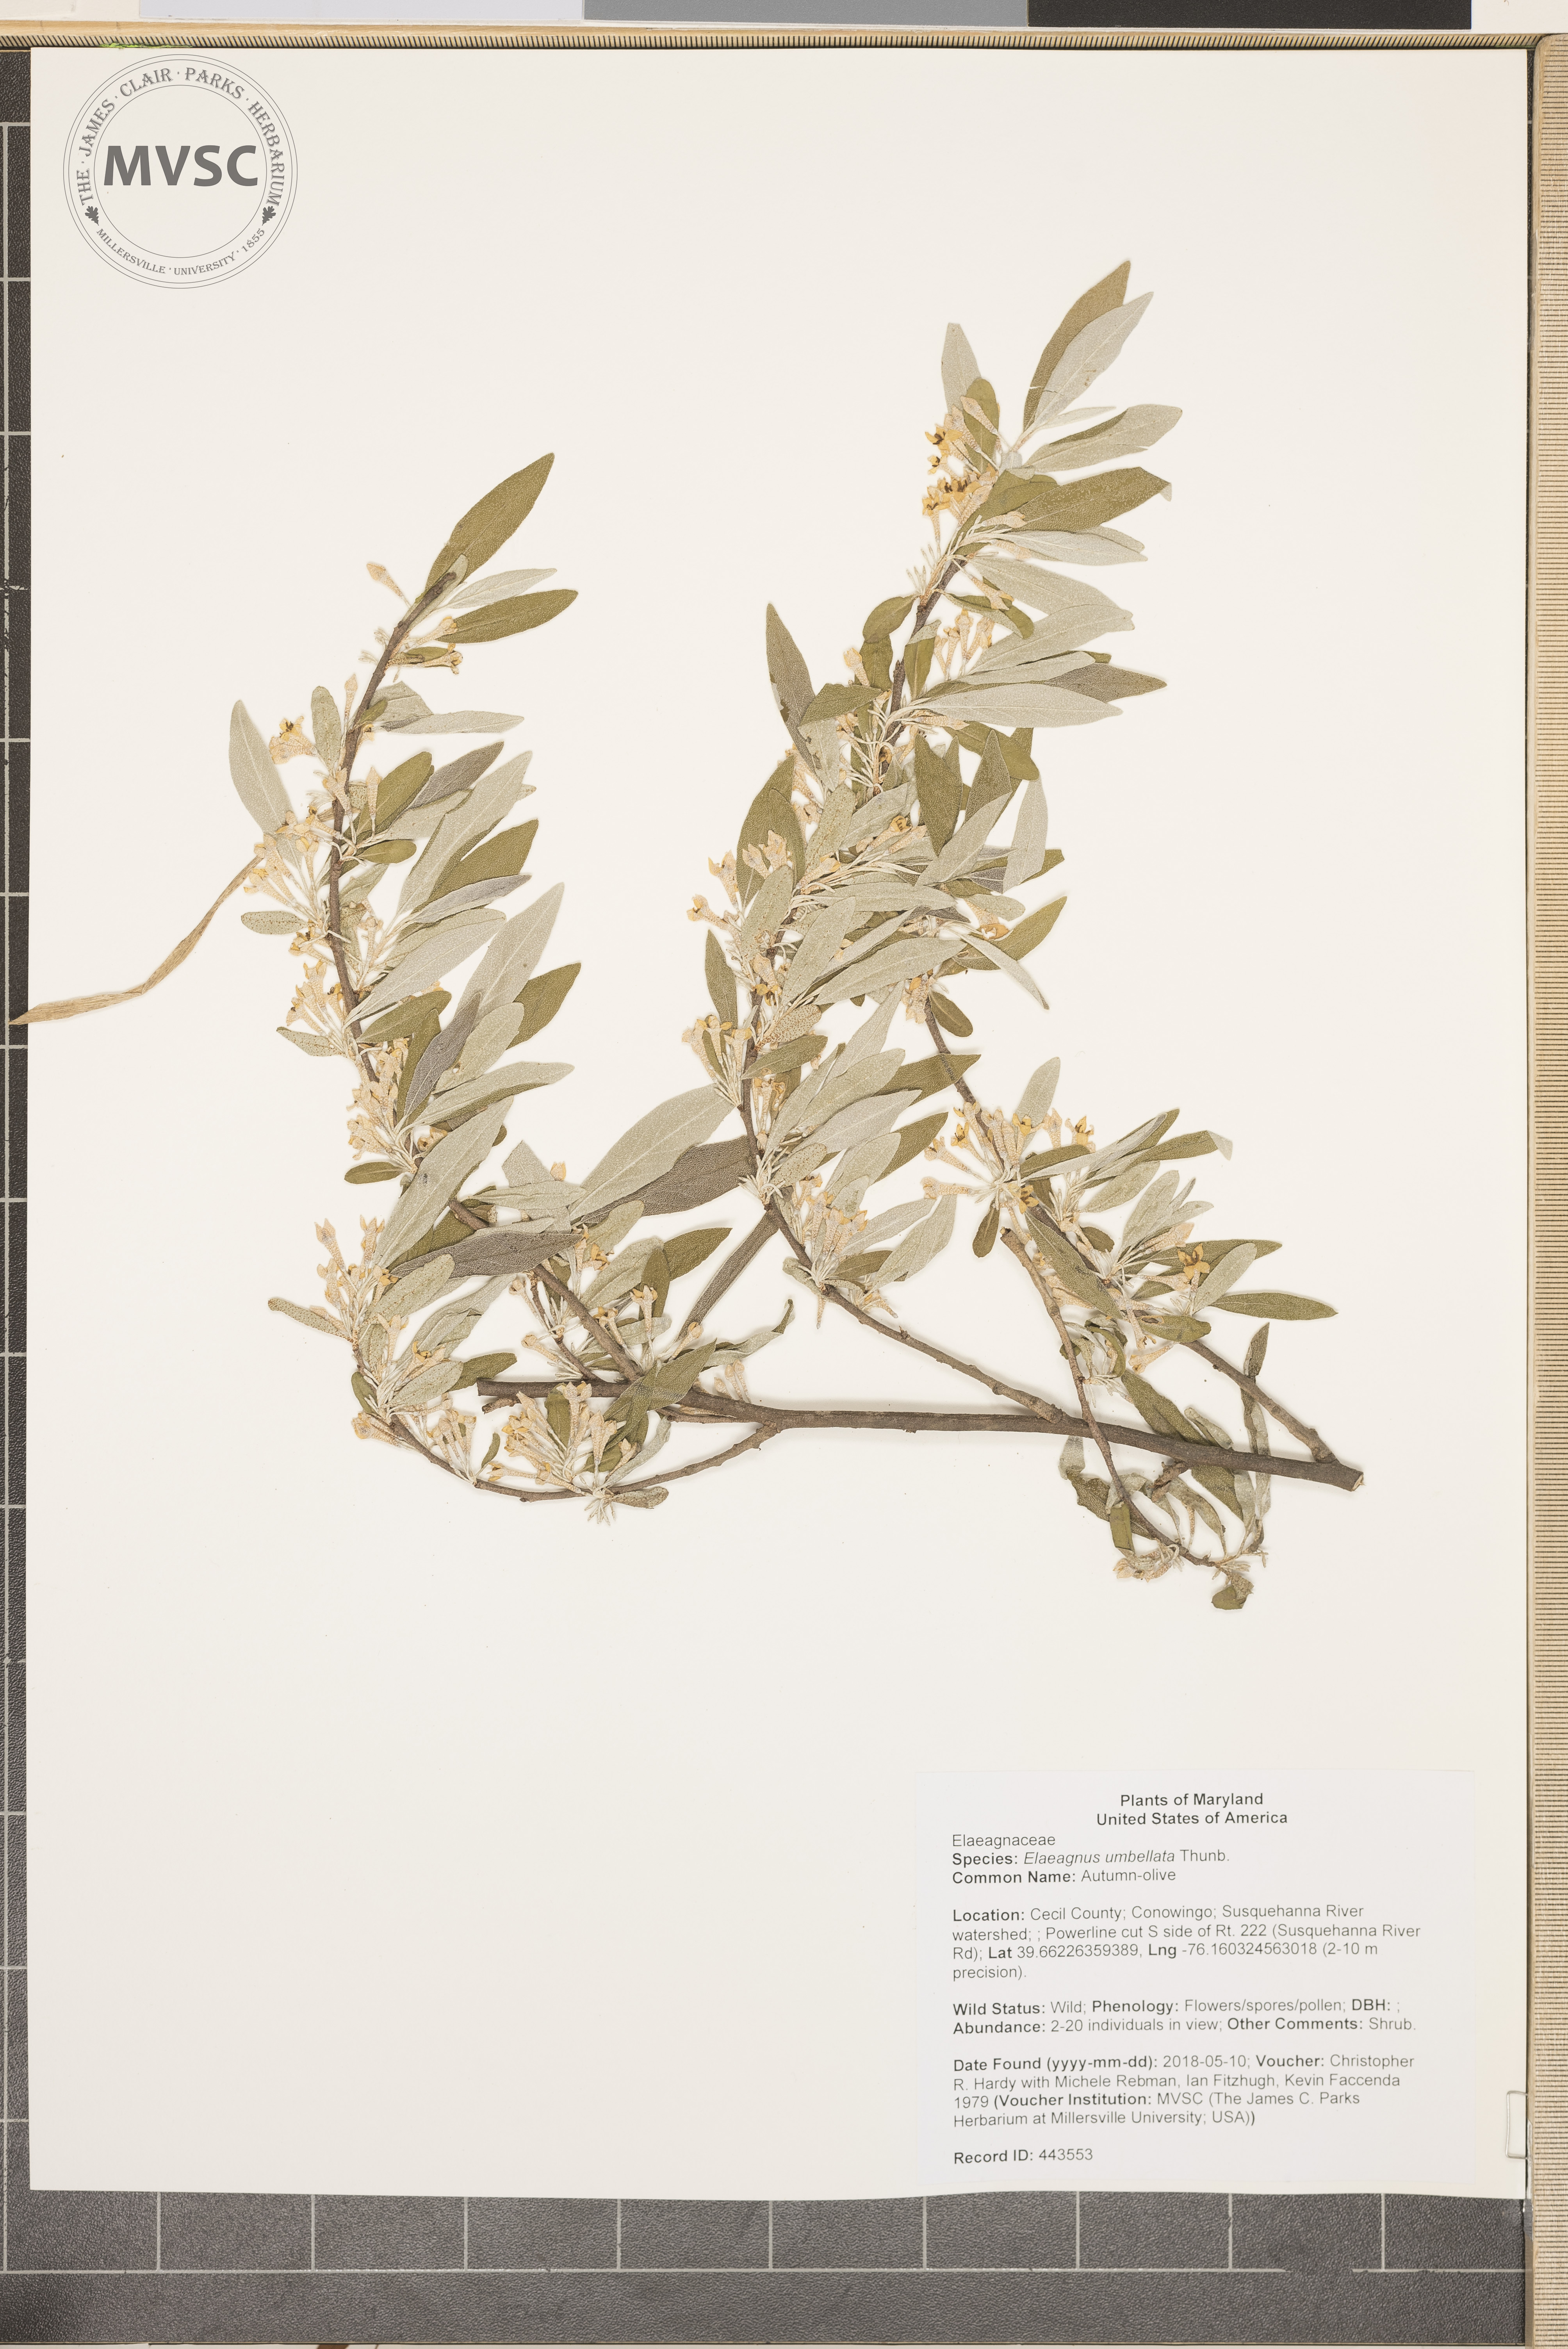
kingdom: Plantae
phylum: Tracheophyta
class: Magnoliopsida
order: Rosales
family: Elaeagnaceae
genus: Elaeagnus
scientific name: Elaeagnus umbellata
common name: Autumn-olive
